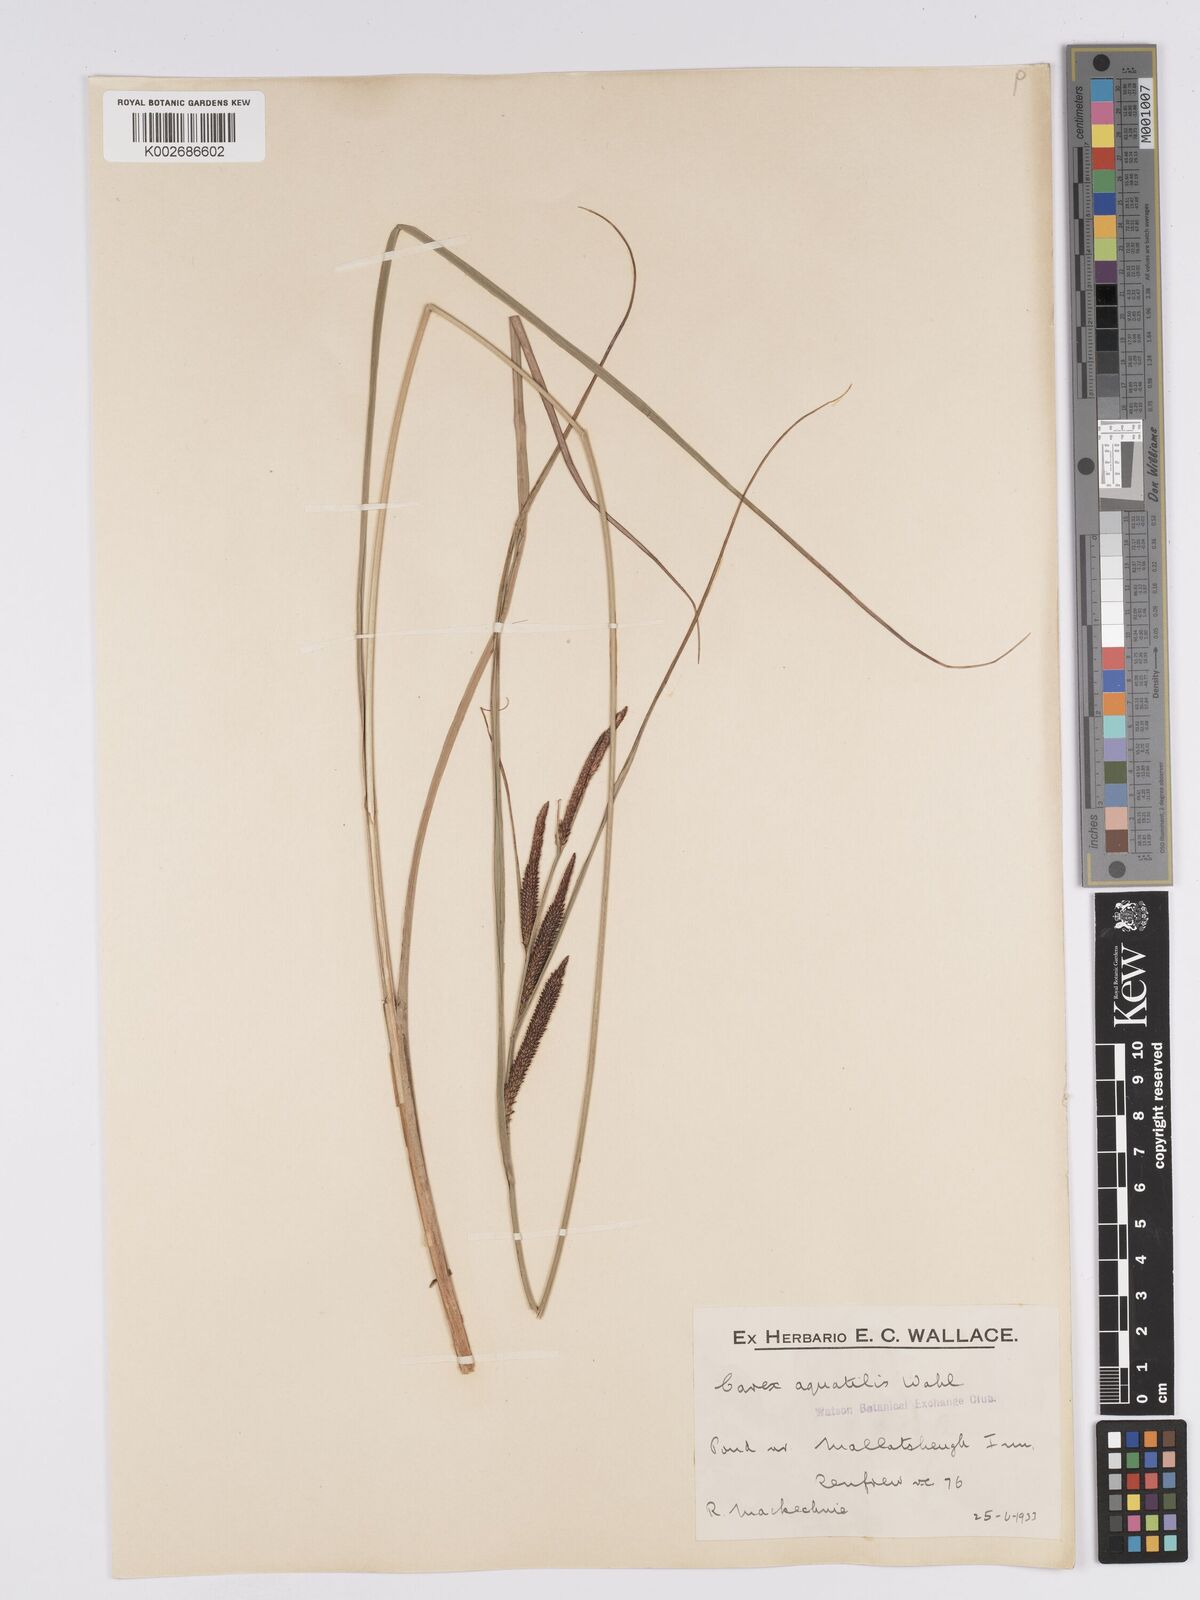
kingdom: Plantae
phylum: Tracheophyta
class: Liliopsida
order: Poales
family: Cyperaceae
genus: Carex
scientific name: Carex aquatilis
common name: Water sedge
